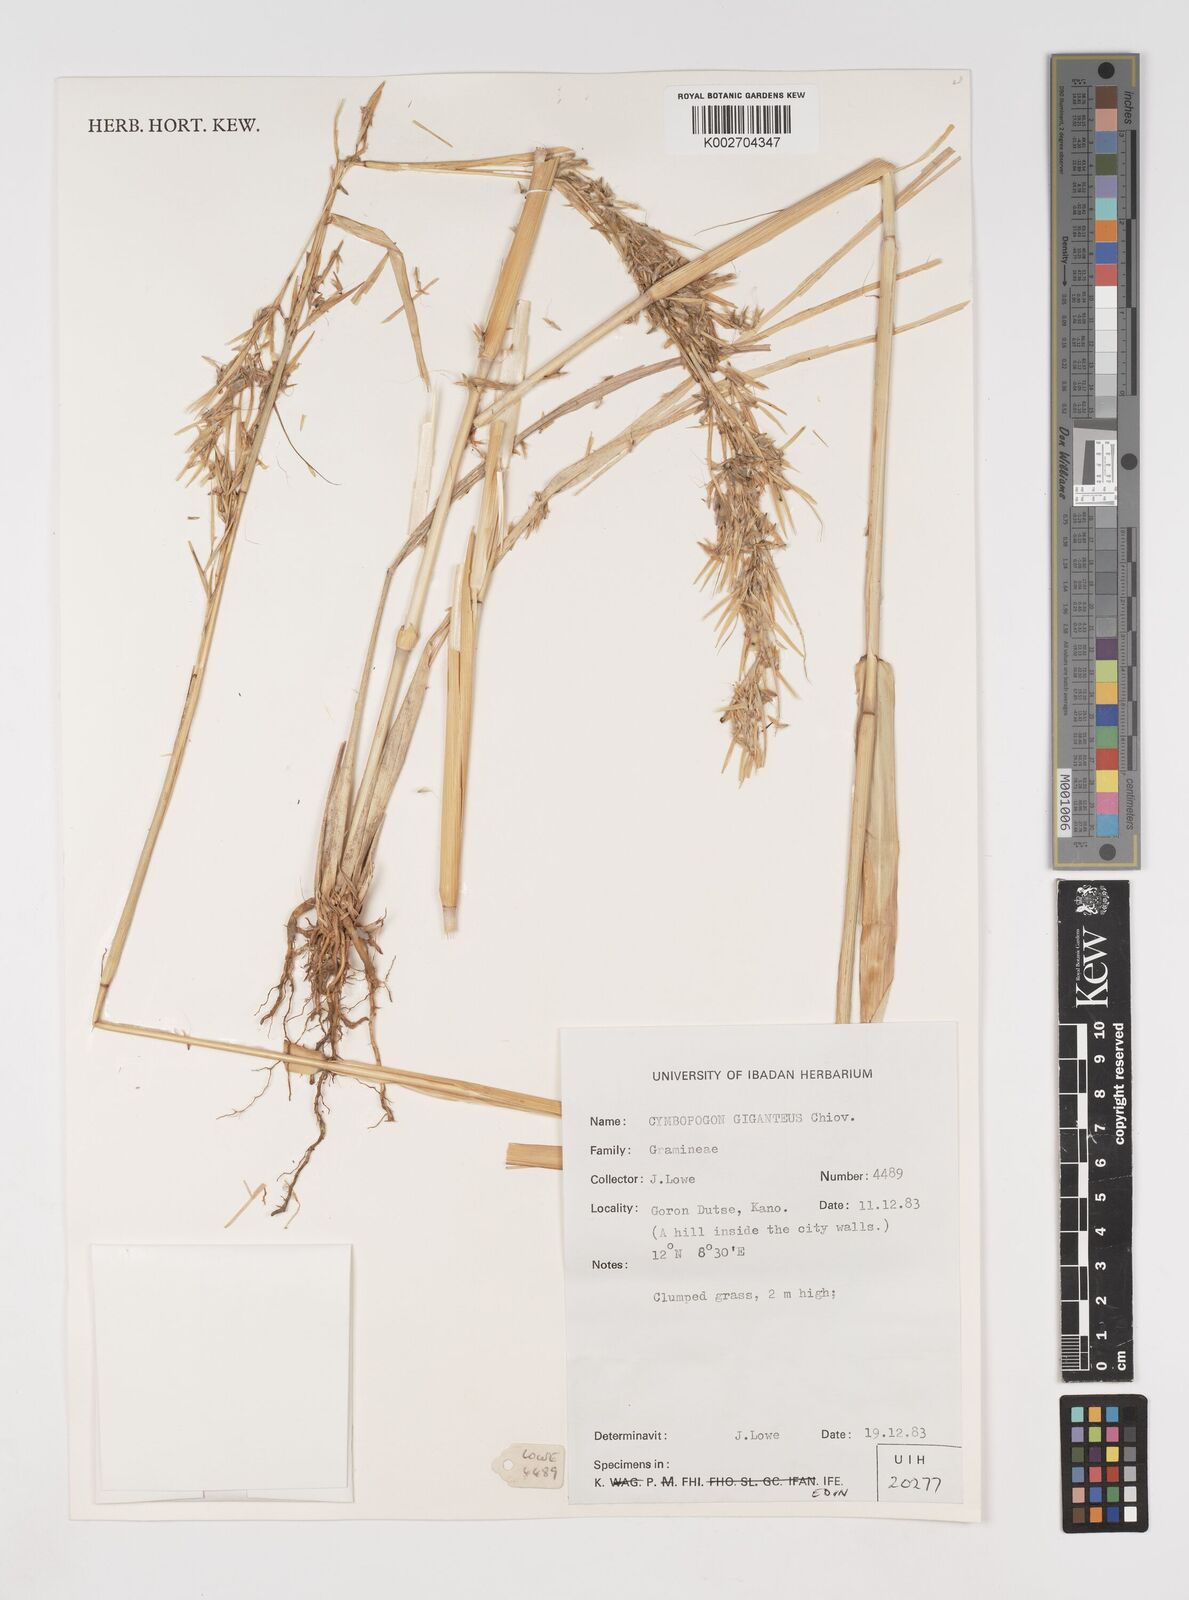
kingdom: Plantae
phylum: Tracheophyta
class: Liliopsida
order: Poales
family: Poaceae
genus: Cymbopogon
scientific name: Cymbopogon giganteus
